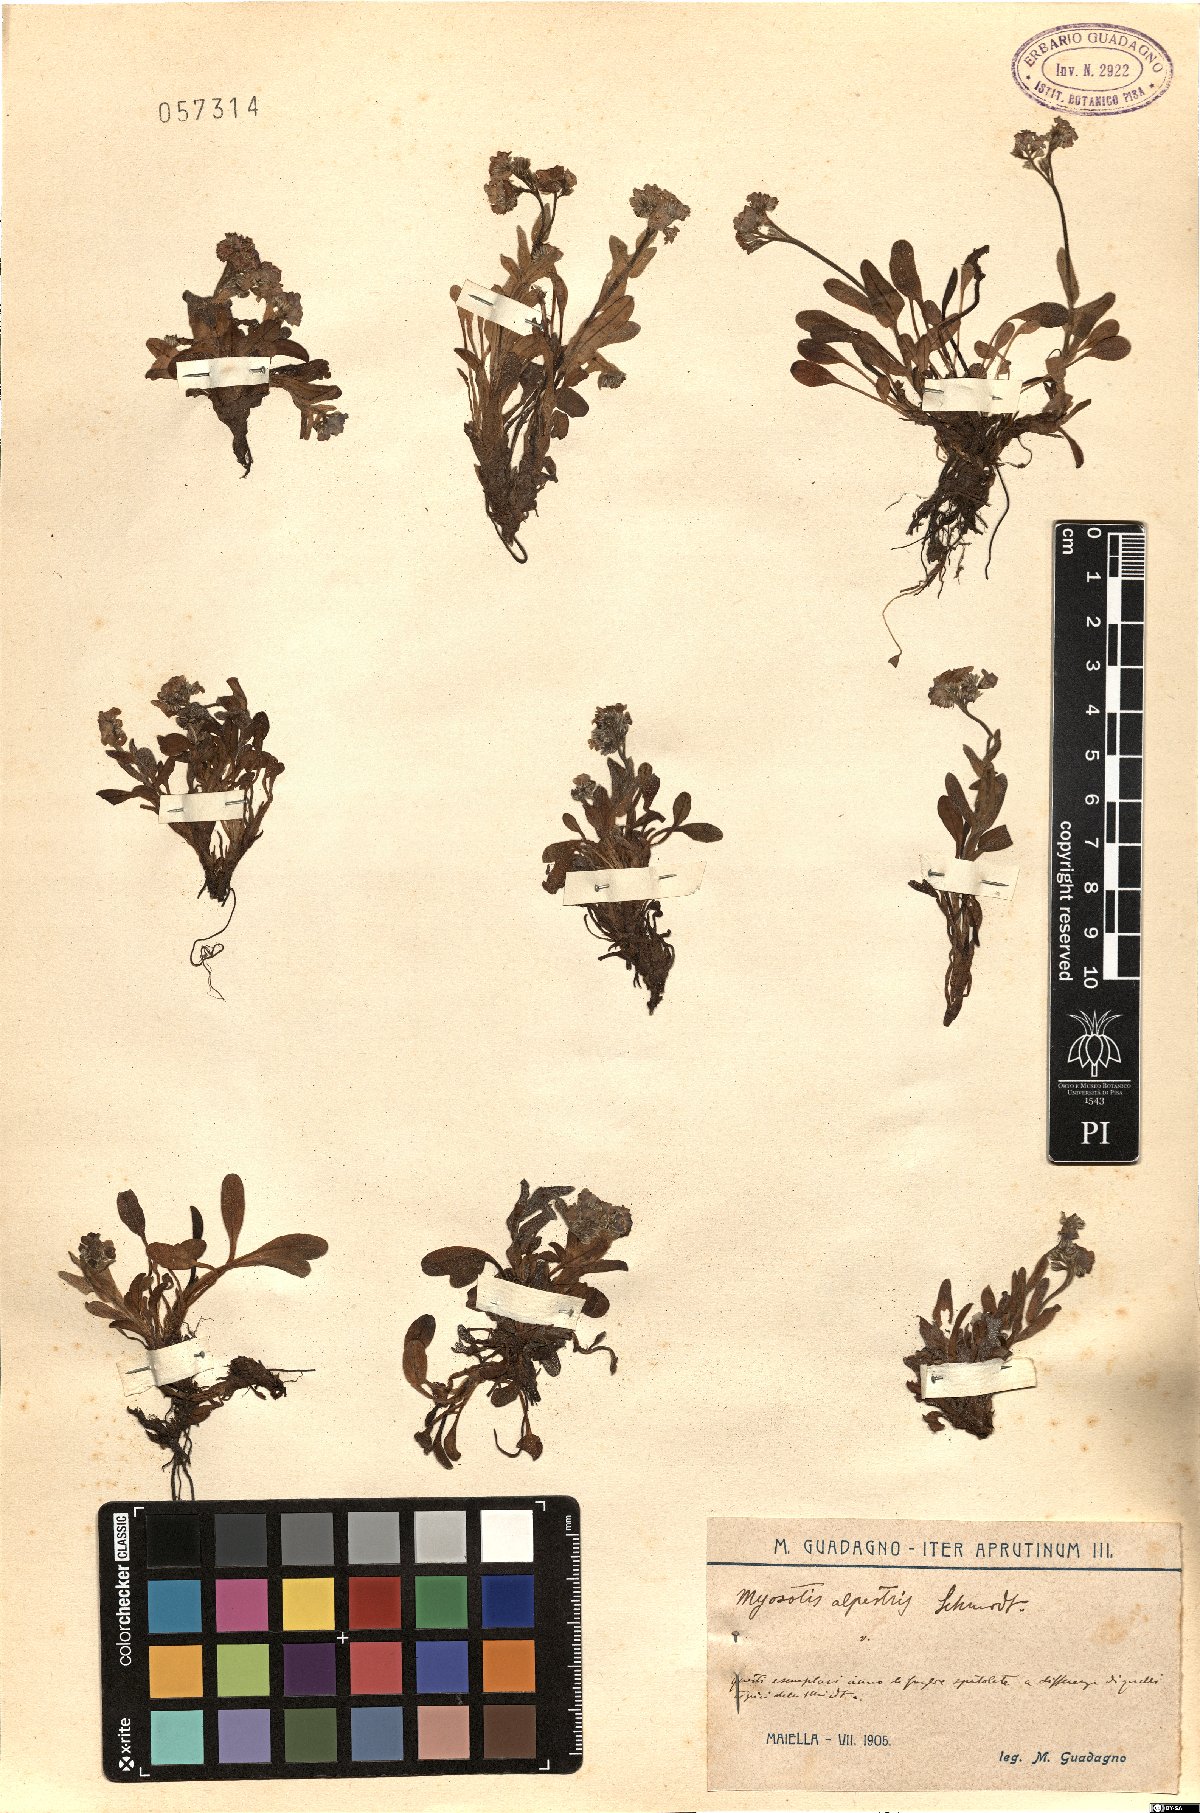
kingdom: Plantae
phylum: Tracheophyta
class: Magnoliopsida
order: Boraginales
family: Boraginaceae
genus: Myosotis
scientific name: Myosotis alpestris
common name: Alpine forget-me-not
